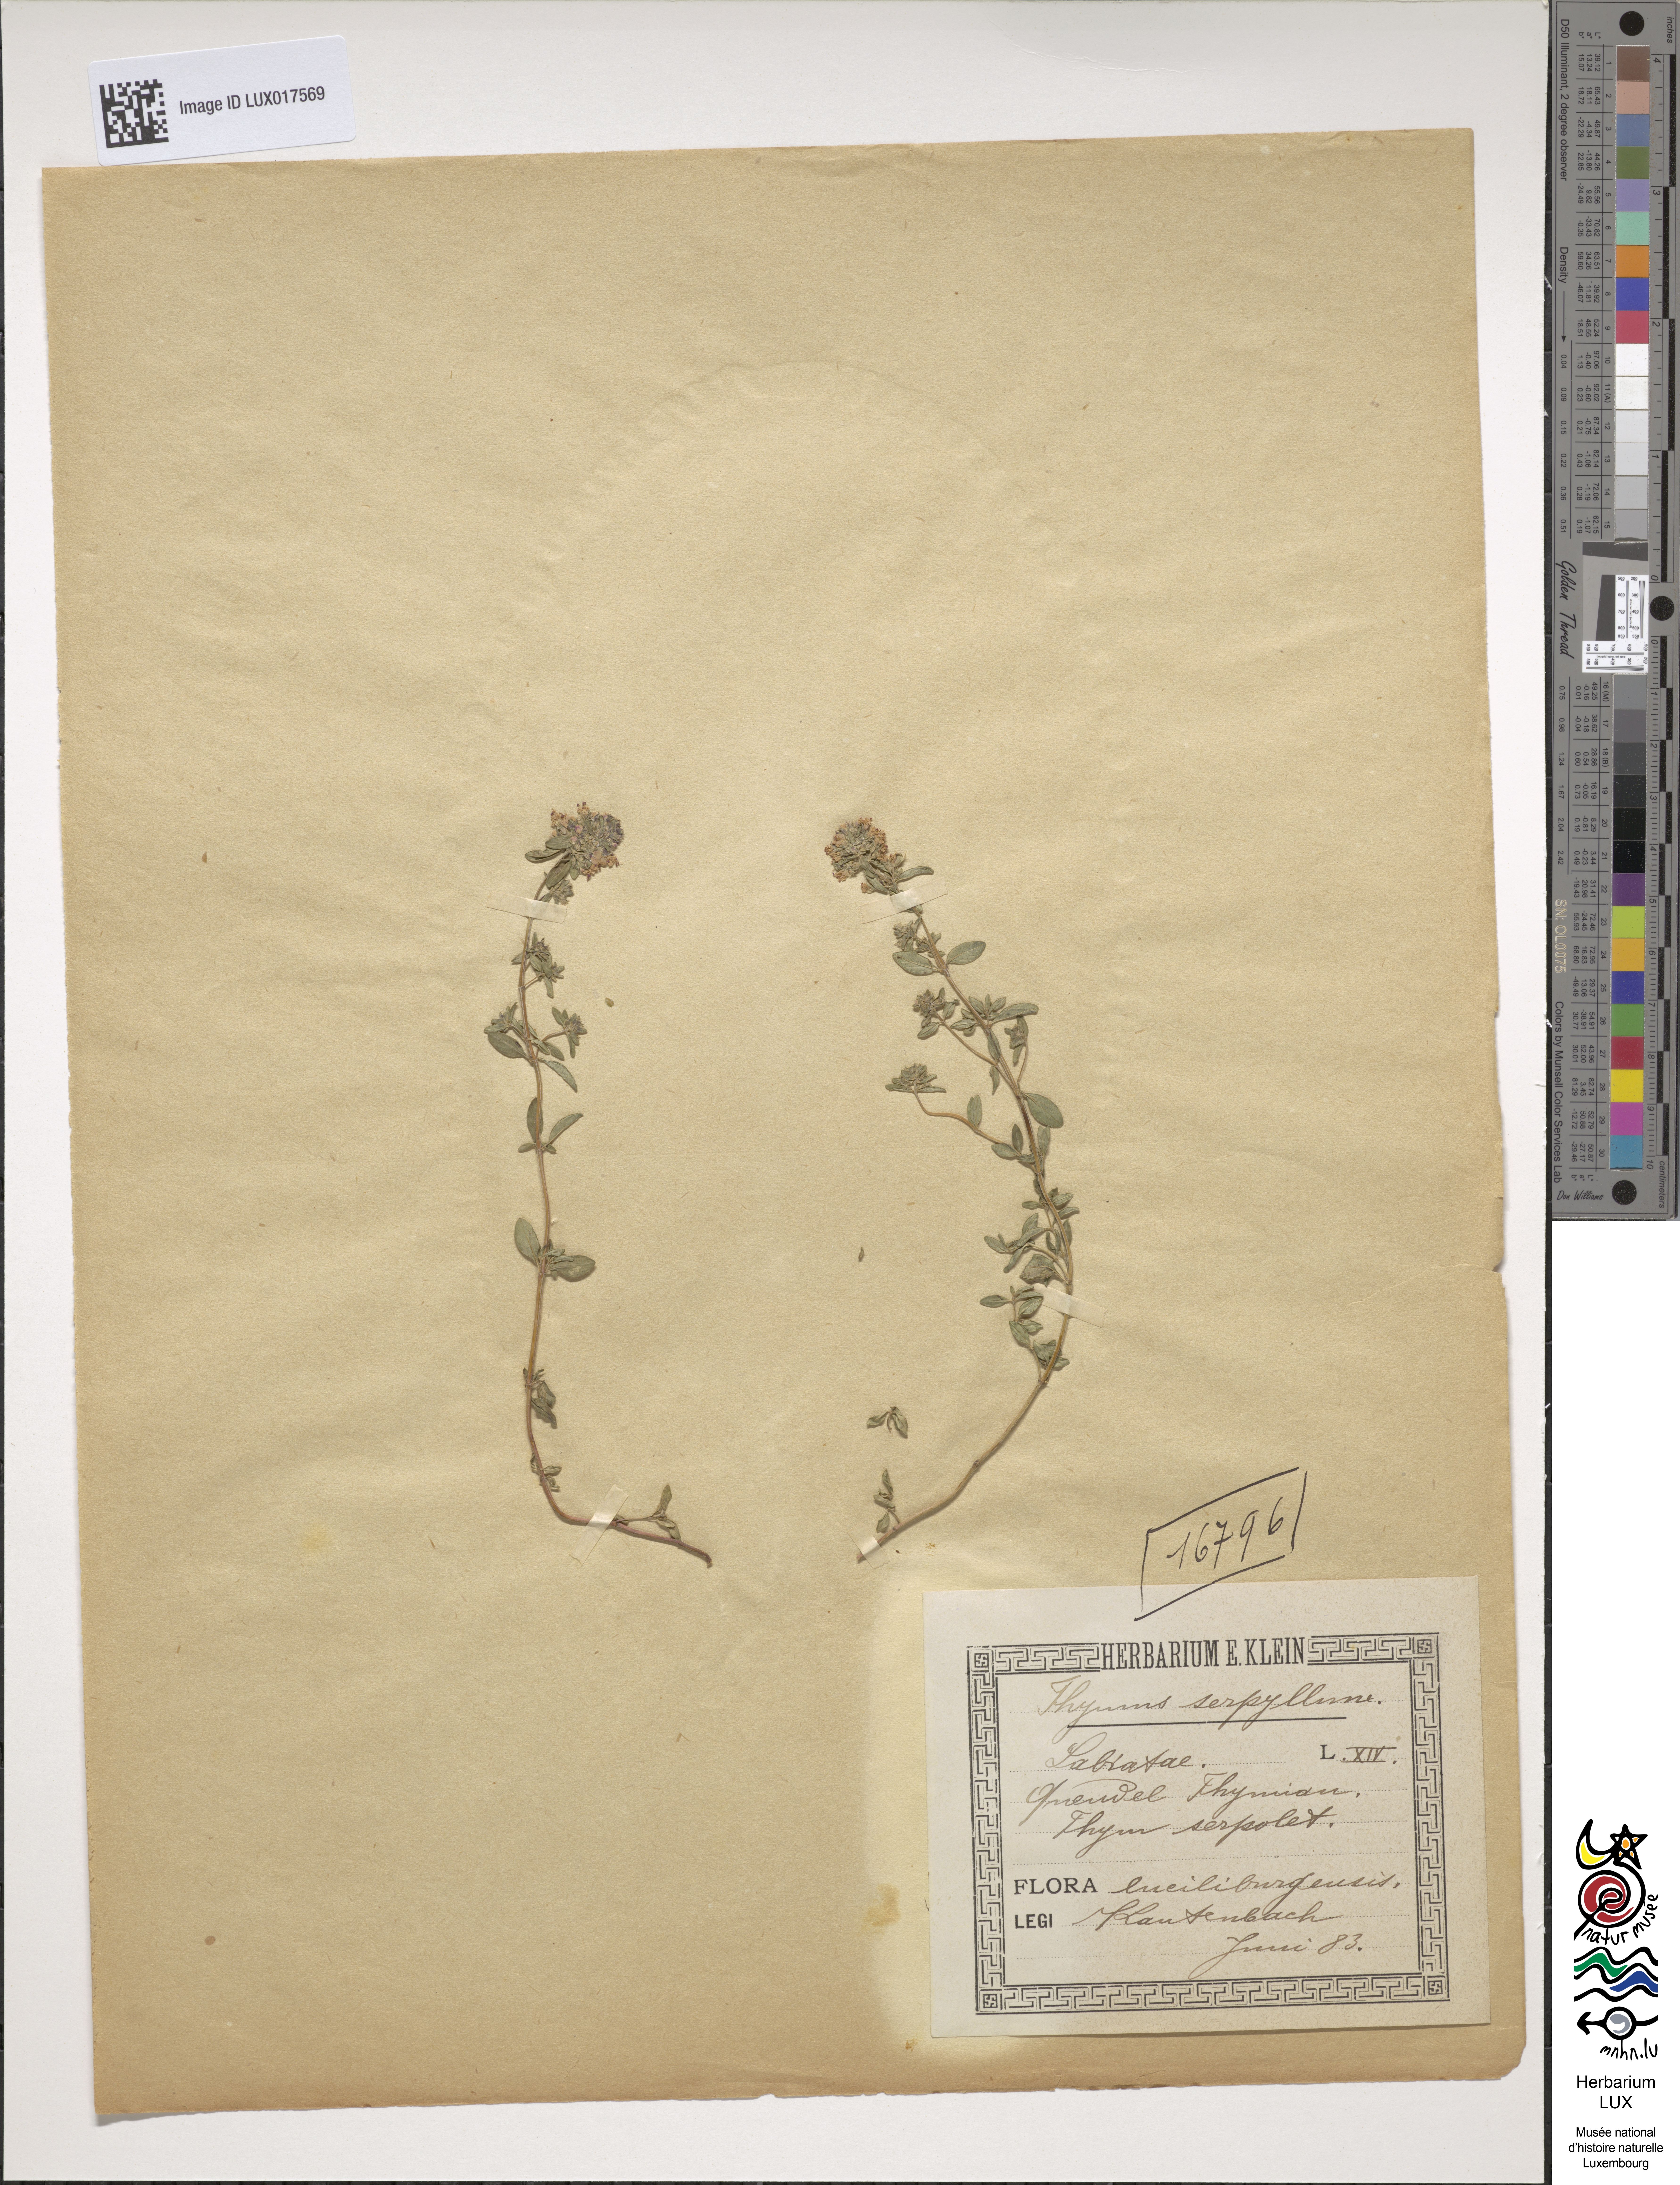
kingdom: Plantae
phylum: Tracheophyta
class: Magnoliopsida
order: Lamiales
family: Lamiaceae
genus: Thymus
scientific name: Thymus pulegioides
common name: Large thyme
